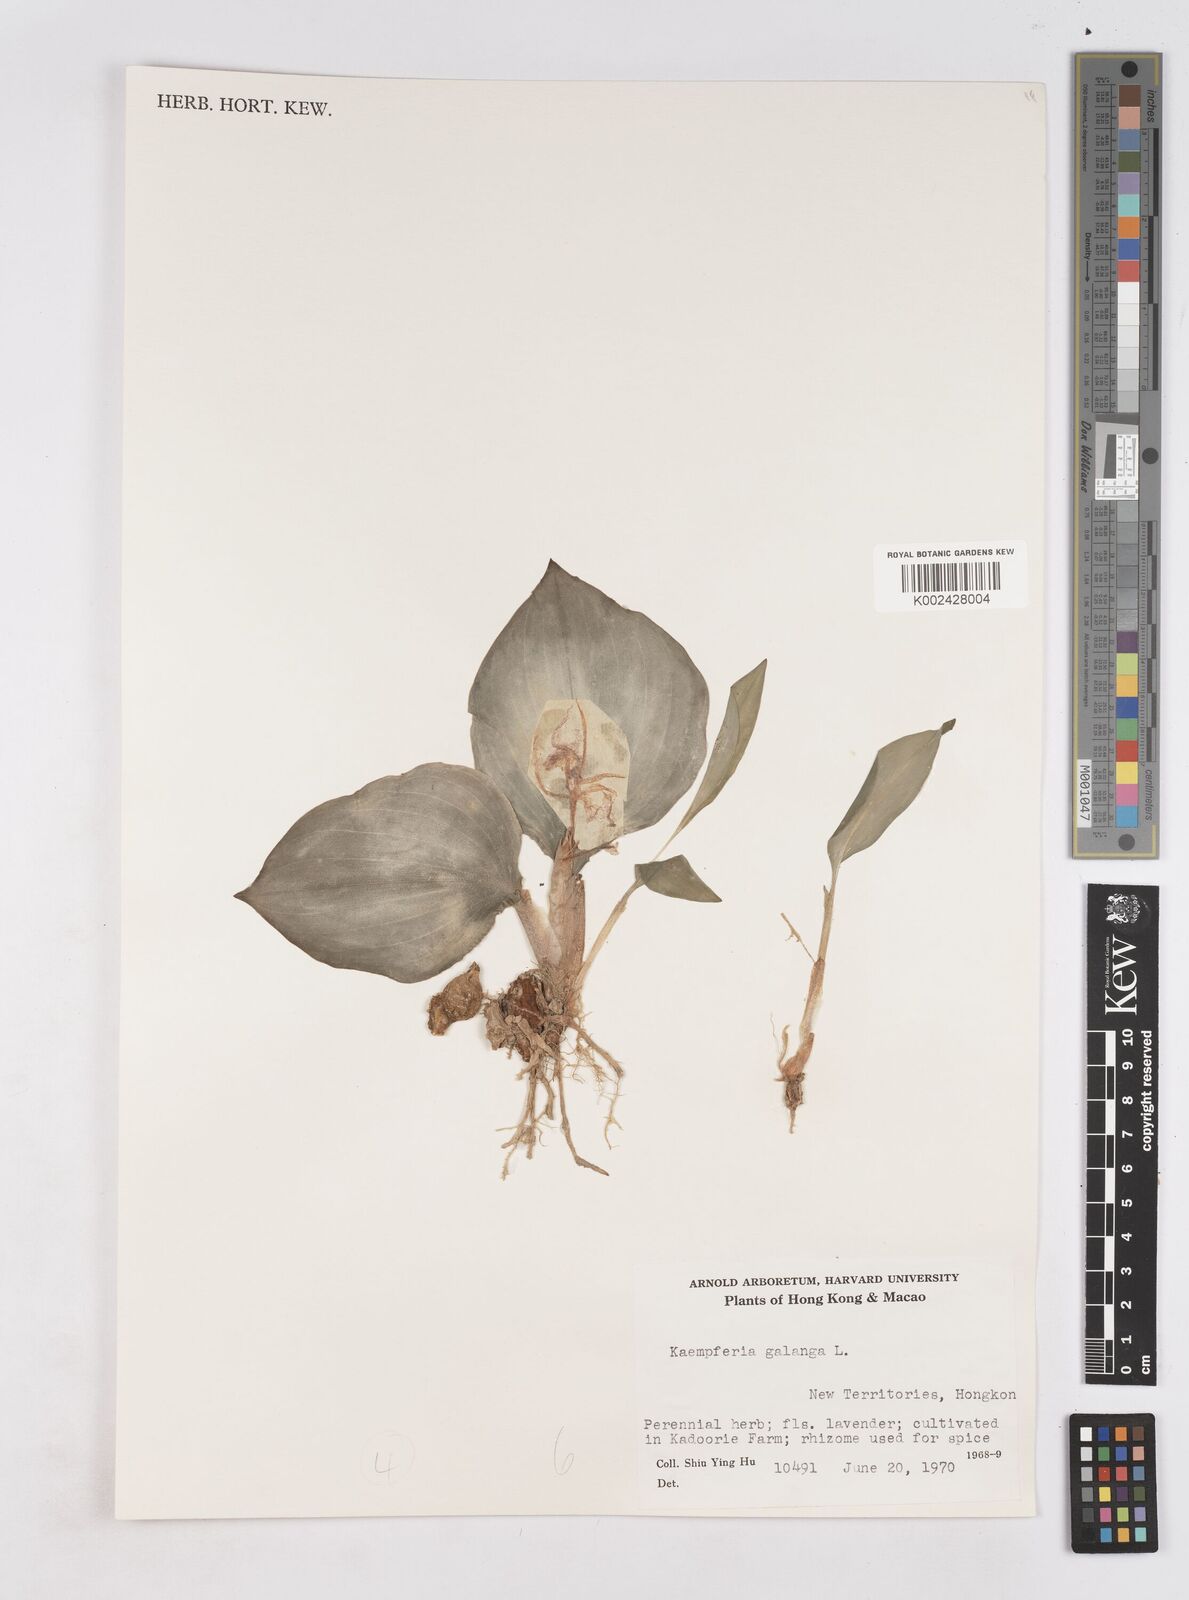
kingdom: Plantae
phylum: Tracheophyta
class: Liliopsida
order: Zingiberales
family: Zingiberaceae
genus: Kaempferia
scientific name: Kaempferia galanga
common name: Aromatic ginger
